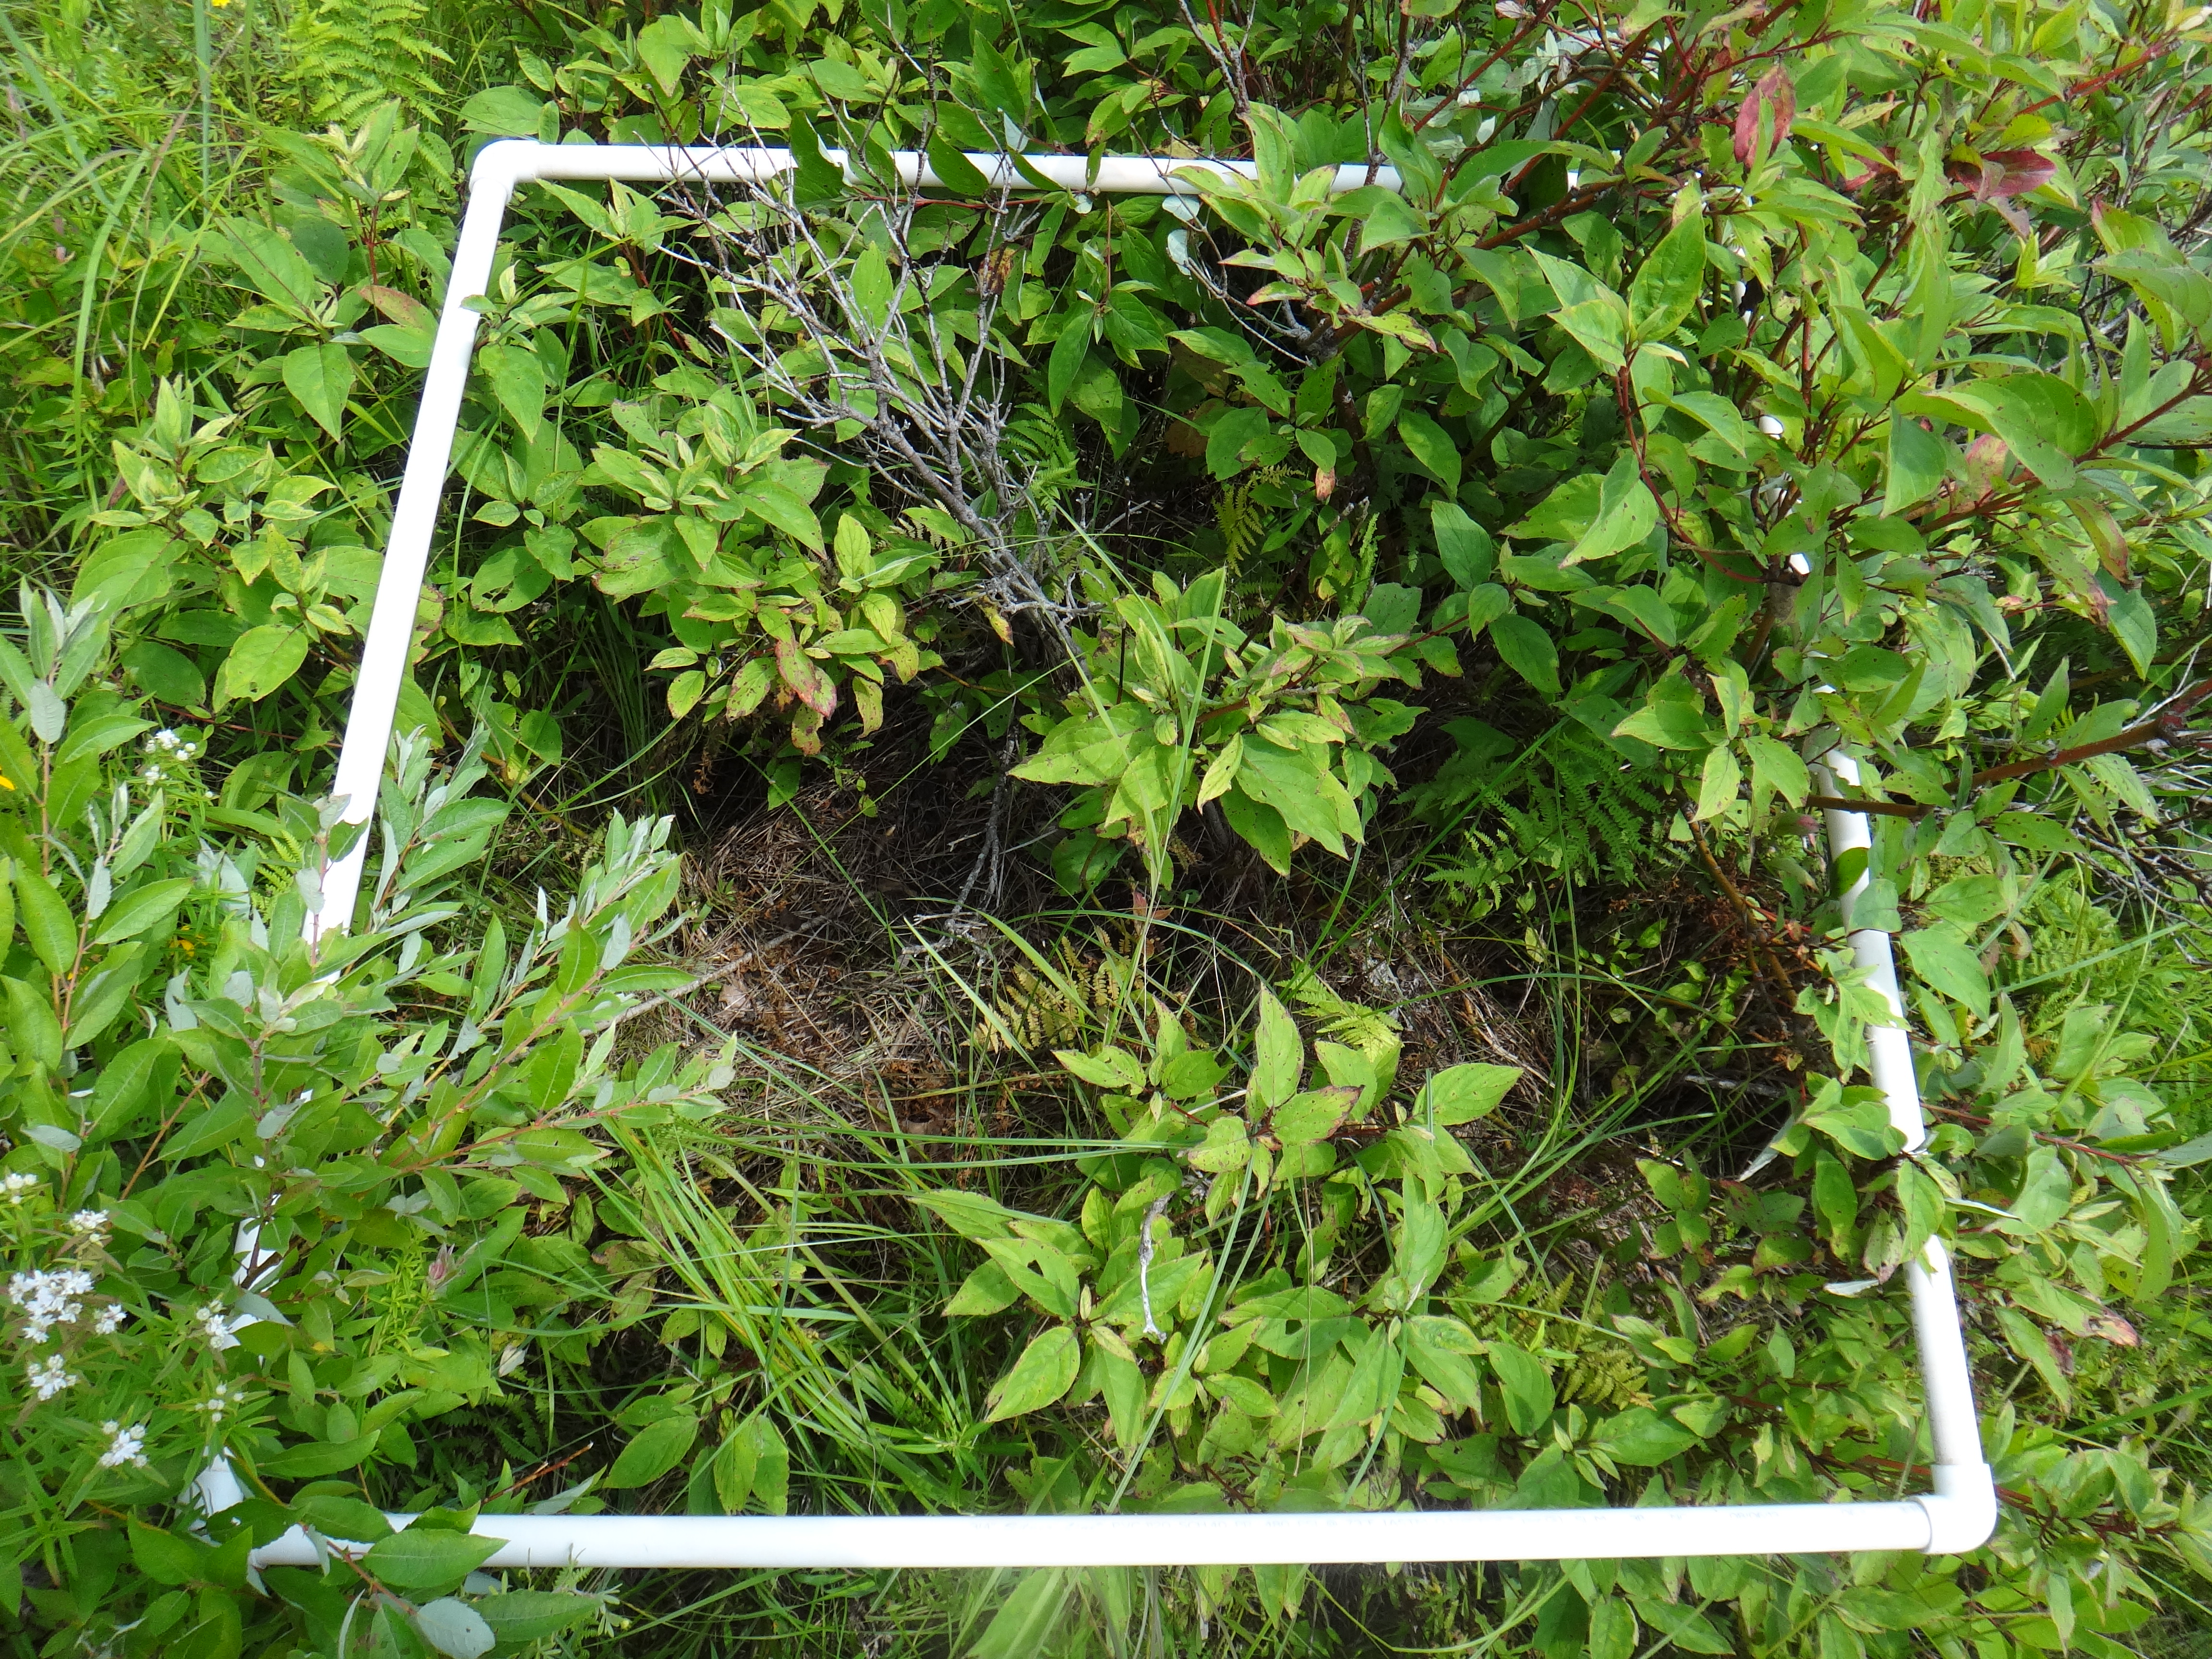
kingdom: Plantae
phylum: Tracheophyta
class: Magnoliopsida
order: Rosales
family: Rosaceae
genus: Dasiphora
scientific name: Dasiphora fruticosa
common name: Shrubby cinquefoil
